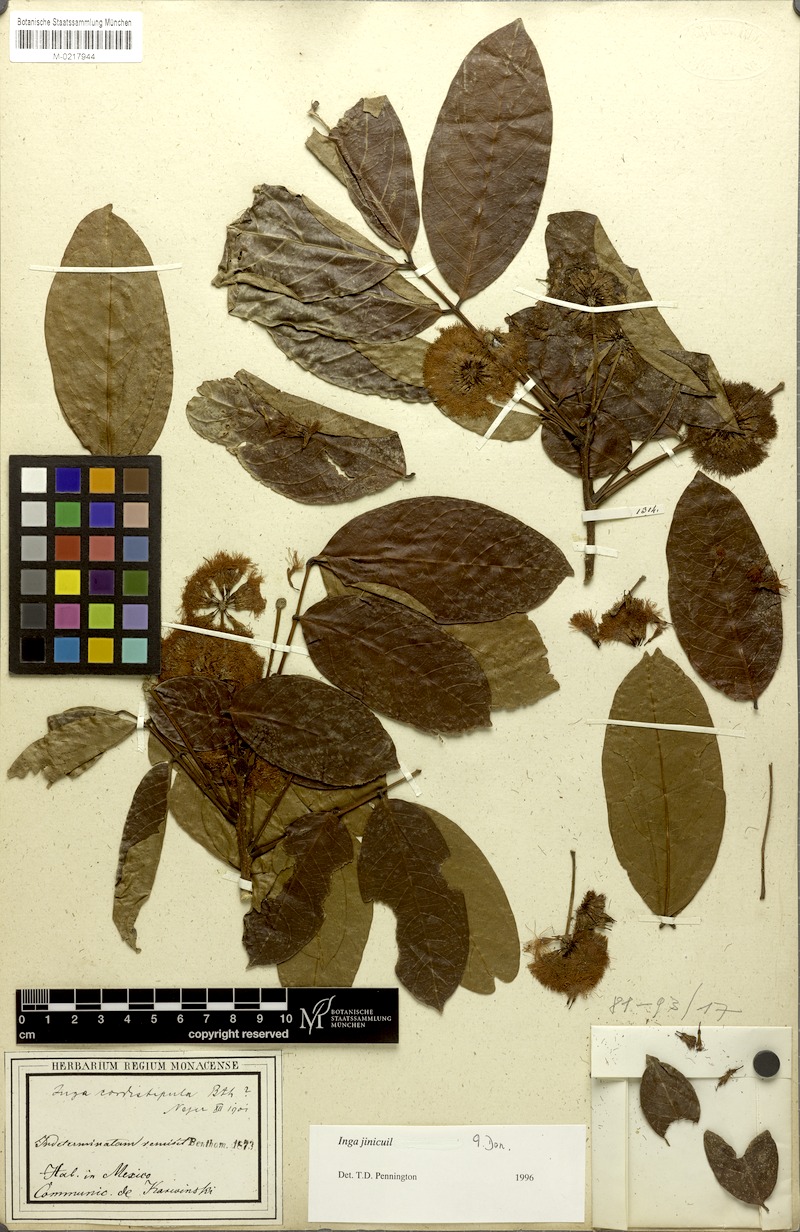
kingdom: Plantae
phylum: Tracheophyta
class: Magnoliopsida
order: Fabales
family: Fabaceae
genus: Inga
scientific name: Inga inicuil
